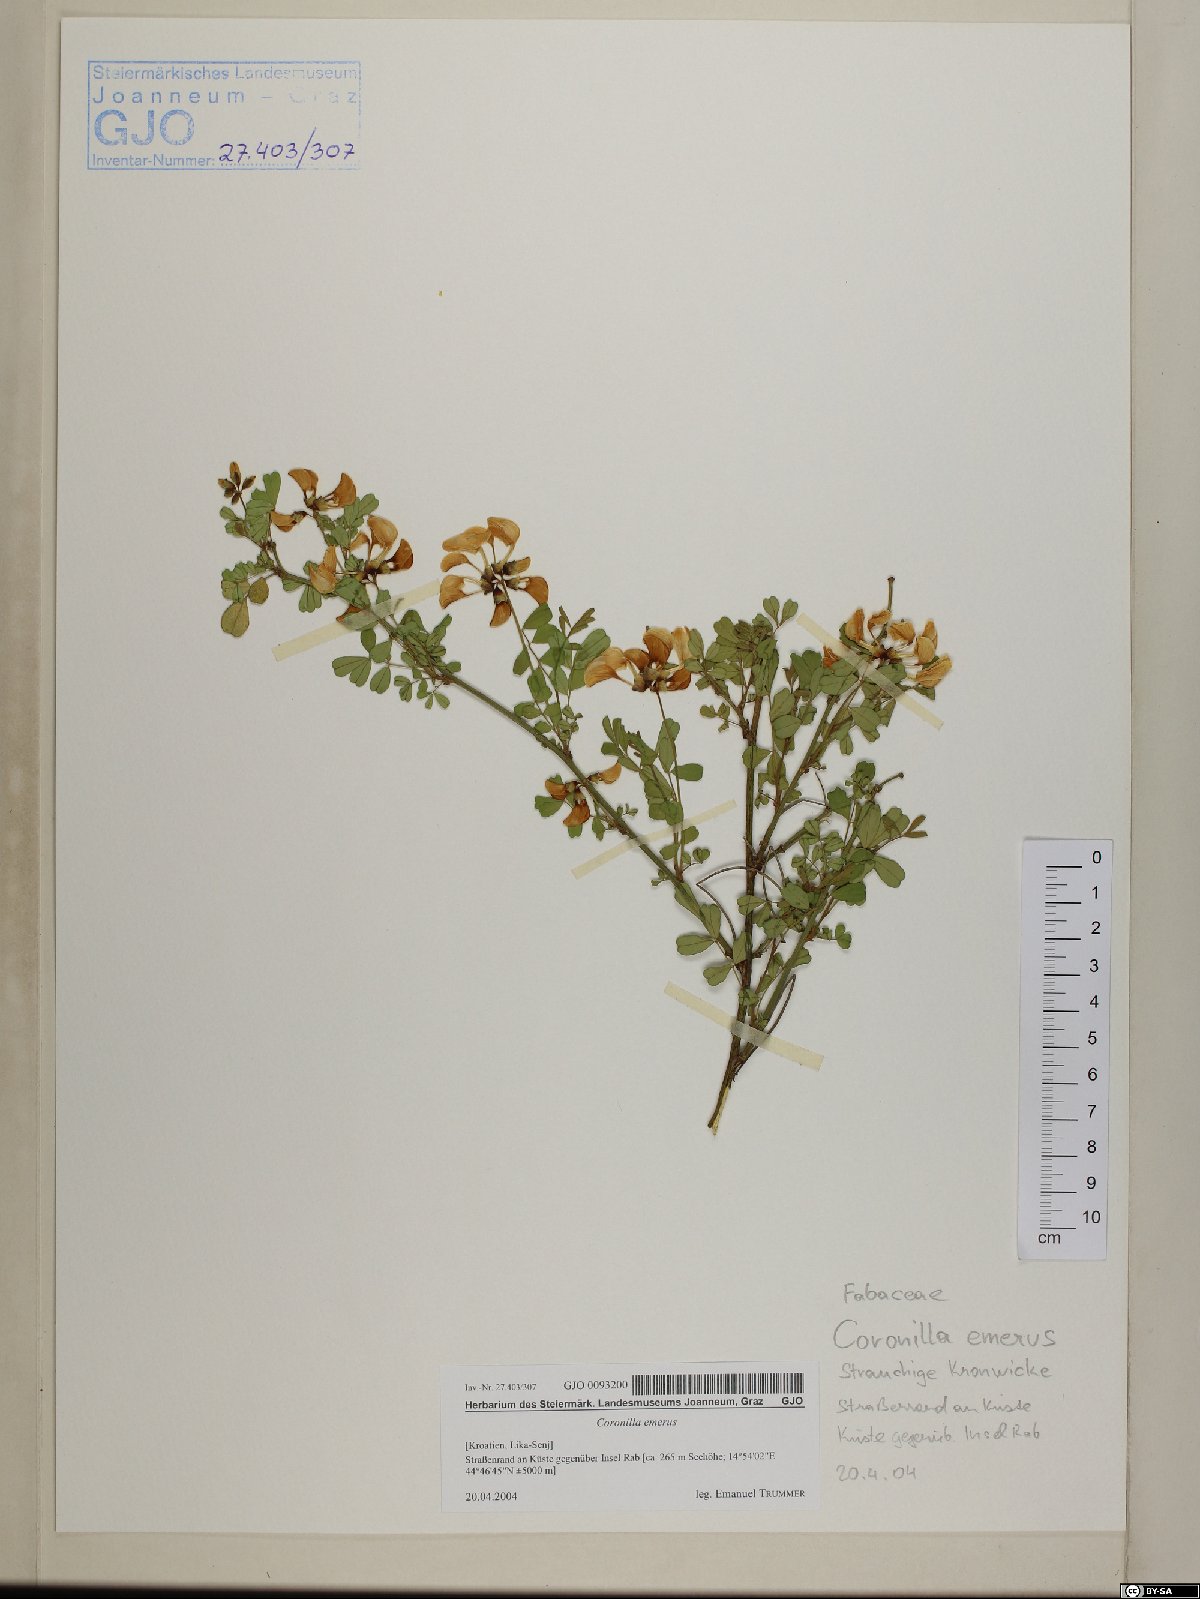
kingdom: Plantae
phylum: Tracheophyta
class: Magnoliopsida
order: Fabales
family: Fabaceae
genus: Hippocrepis
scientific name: Hippocrepis emerus
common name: Scorpion senna
